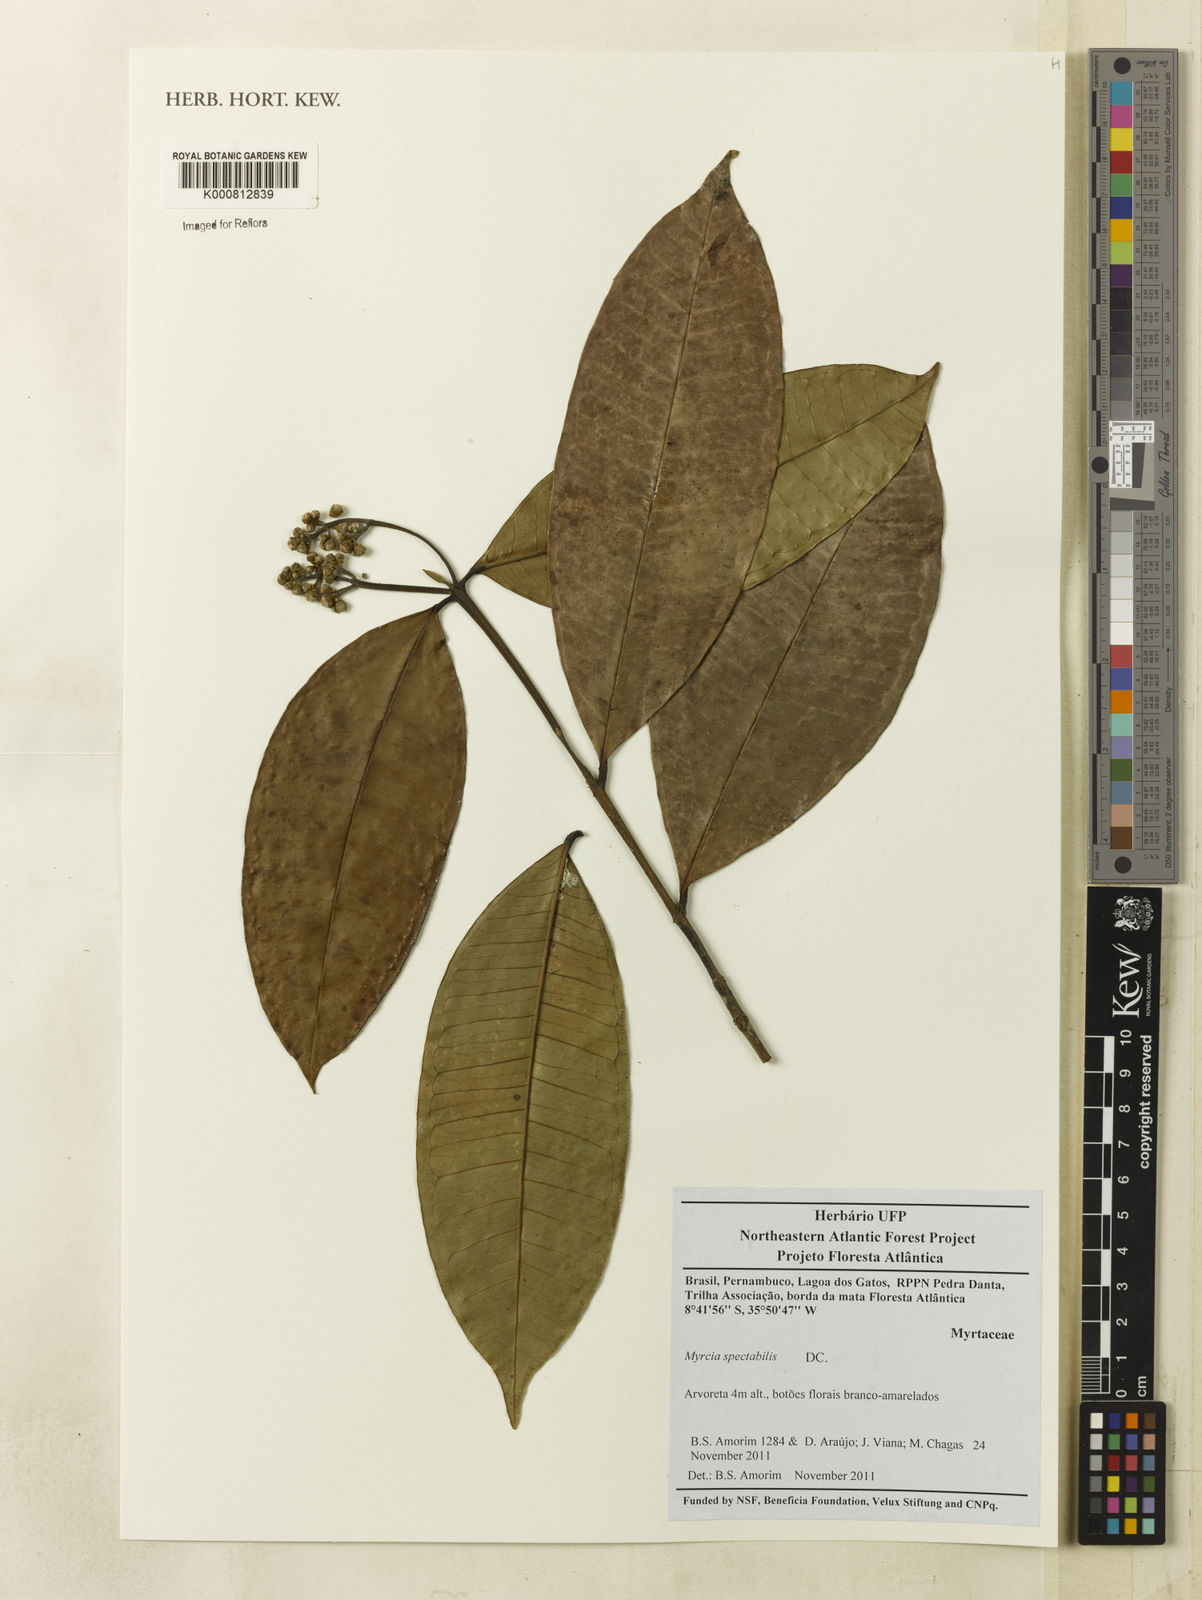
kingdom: Plantae
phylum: Tracheophyta
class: Magnoliopsida
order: Myrtales
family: Myrtaceae
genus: Myrcia
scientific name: Myrcia springiana
